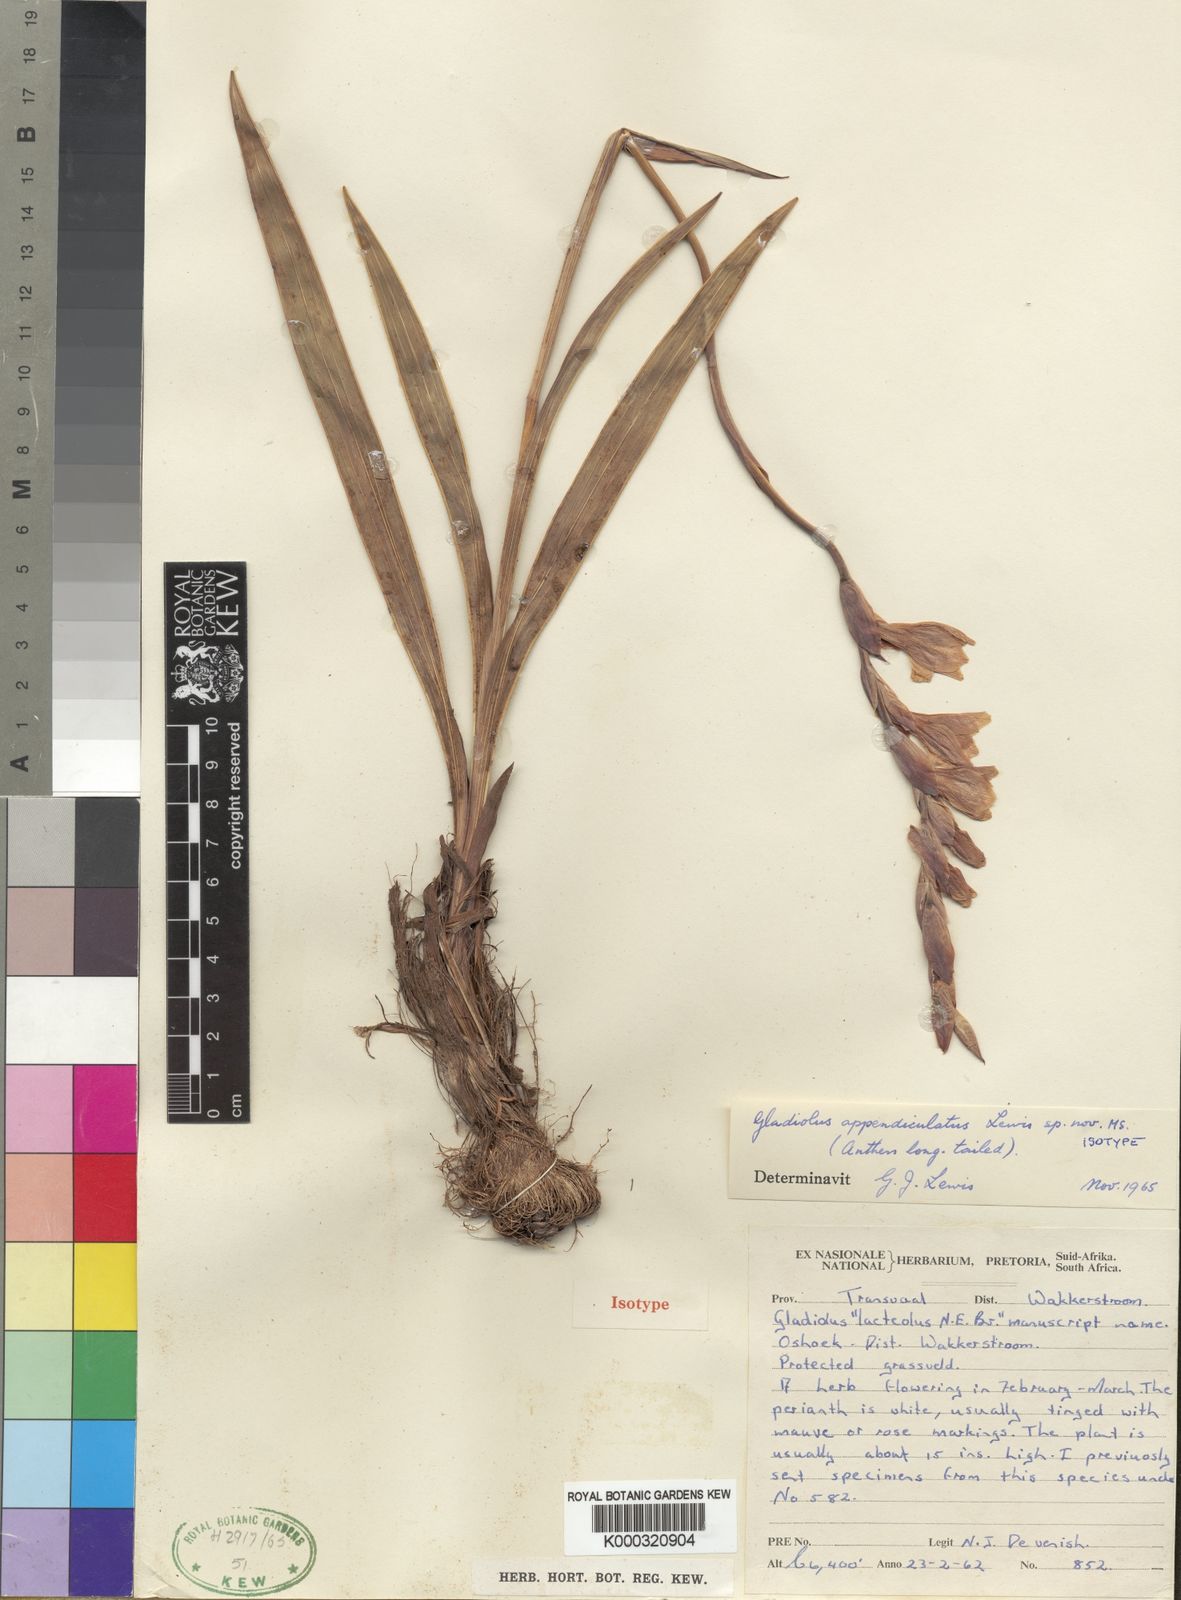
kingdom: Plantae
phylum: Tracheophyta
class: Liliopsida
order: Asparagales
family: Iridaceae
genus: Gladiolus
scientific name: Gladiolus appendiculatus
